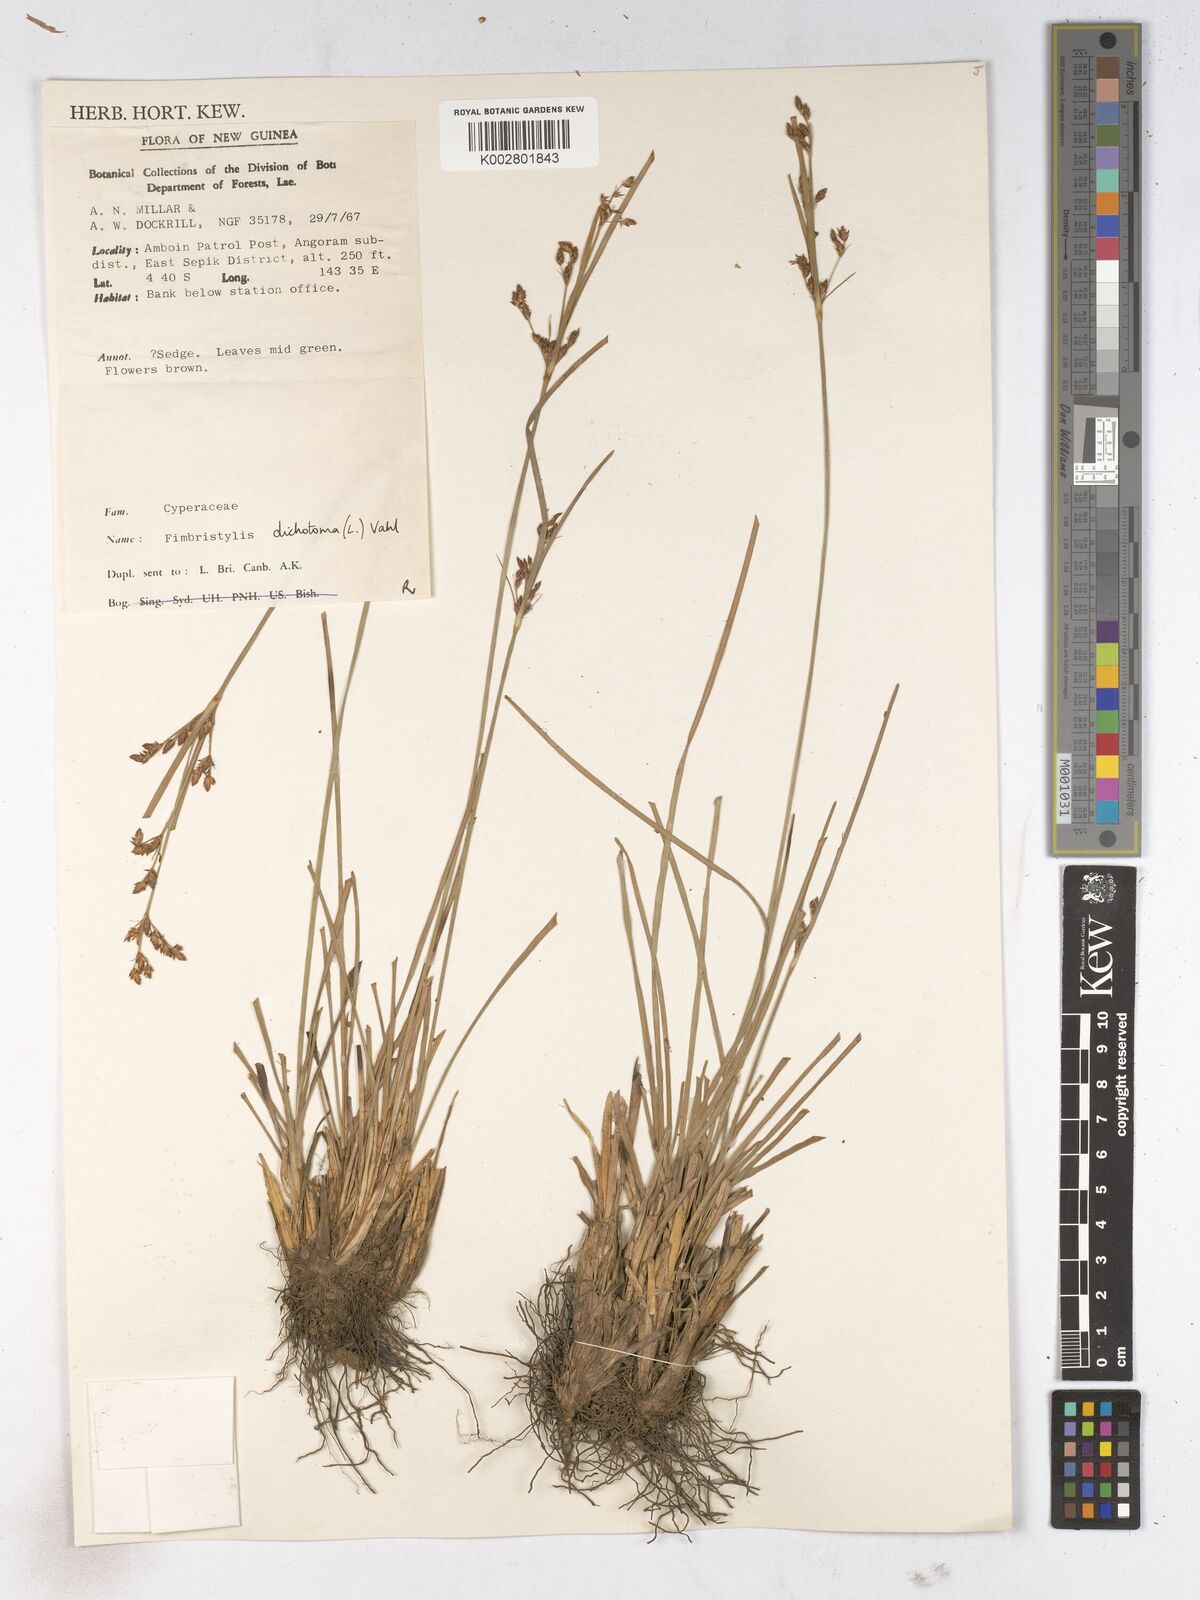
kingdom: Plantae
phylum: Tracheophyta
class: Liliopsida
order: Poales
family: Cyperaceae
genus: Fimbristylis
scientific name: Fimbristylis dichotoma
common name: Forked fimbry
